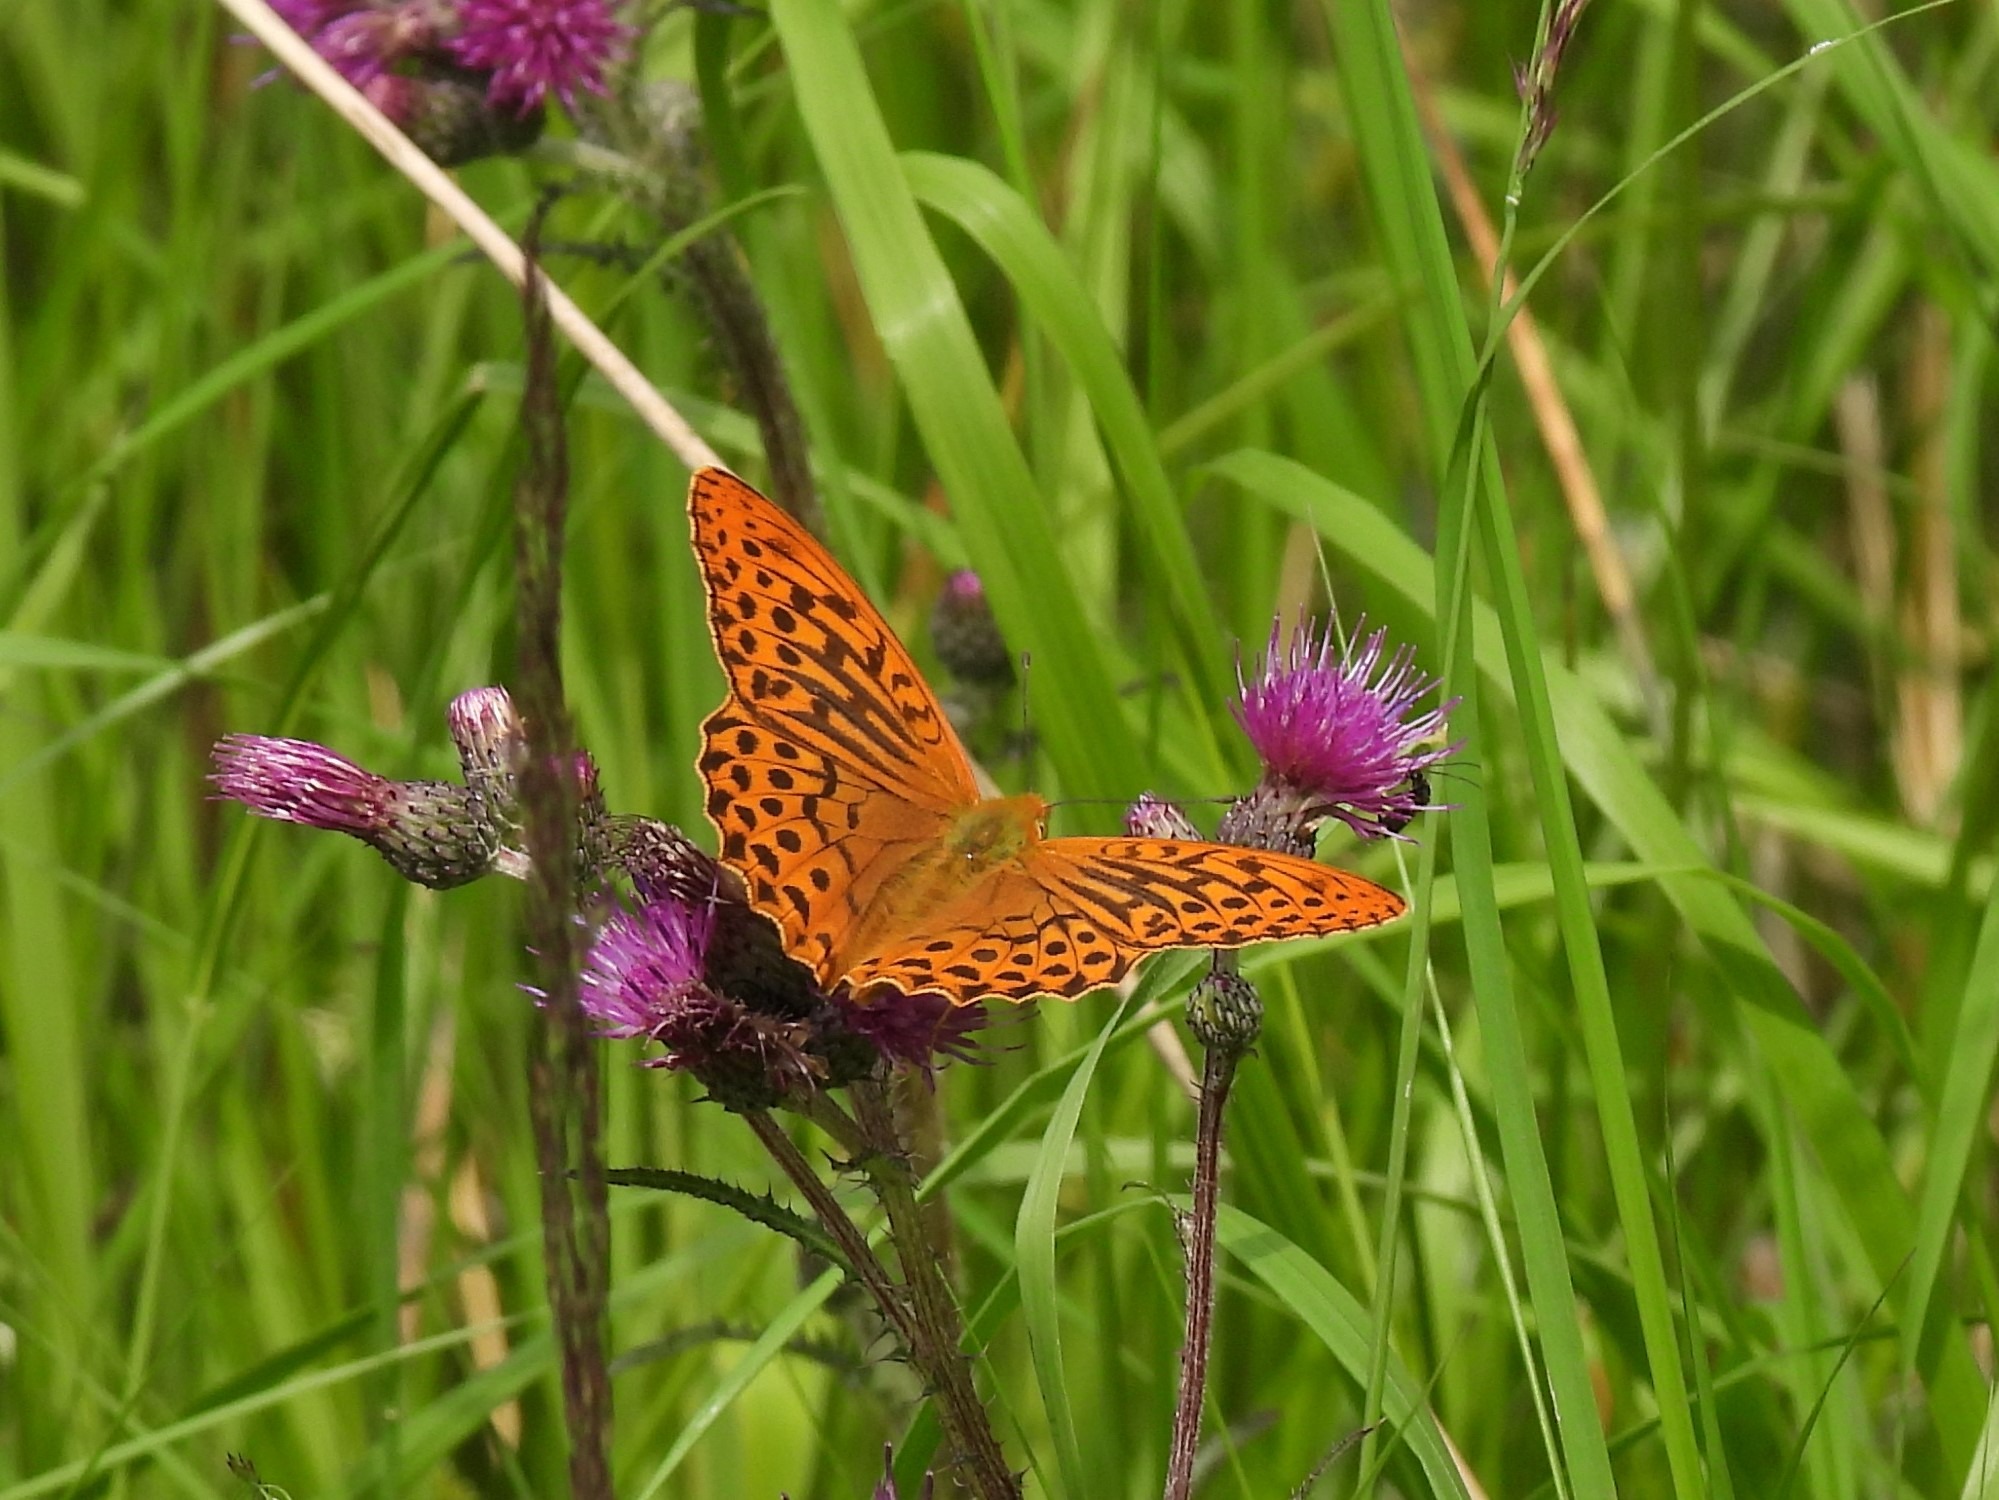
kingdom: Animalia
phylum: Arthropoda
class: Insecta
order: Lepidoptera
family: Nymphalidae
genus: Argynnis
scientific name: Argynnis paphia
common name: Kejserkåbe
